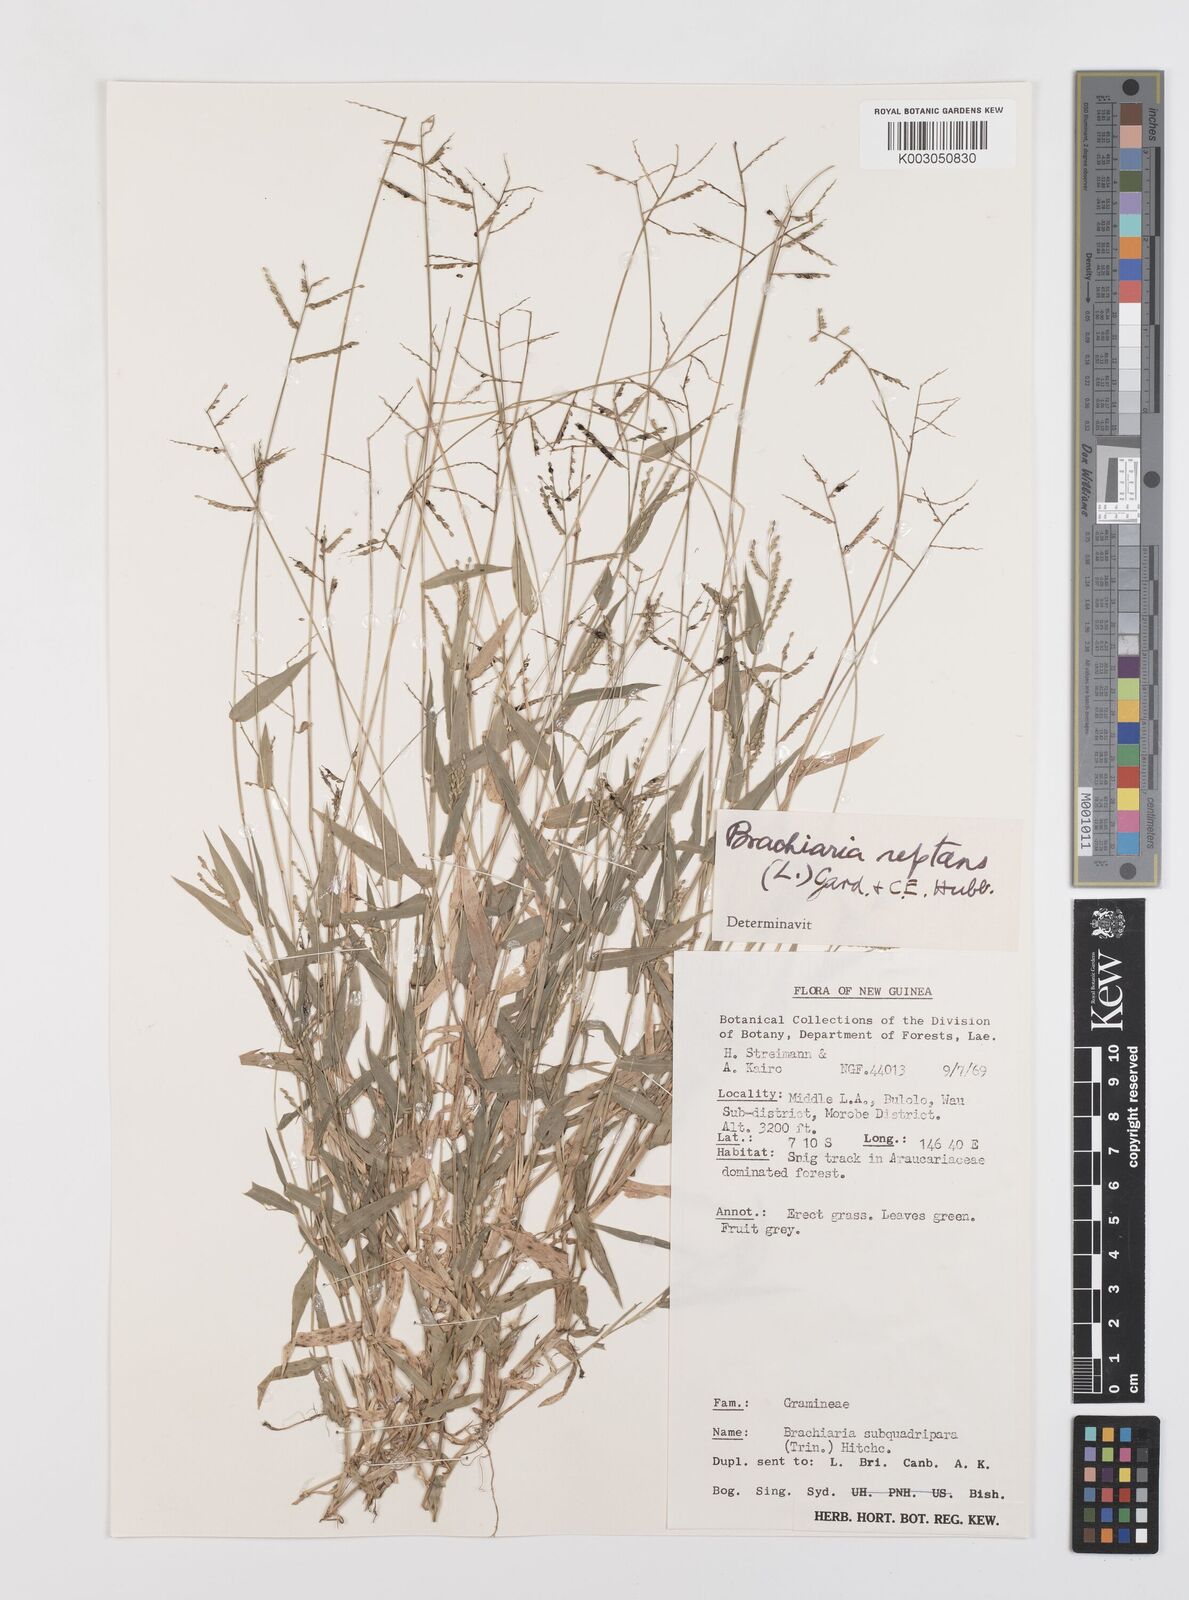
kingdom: Plantae
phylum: Tracheophyta
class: Liliopsida
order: Poales
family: Poaceae
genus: Urochloa
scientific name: Urochloa reptans
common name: Sprawling signalgrass
